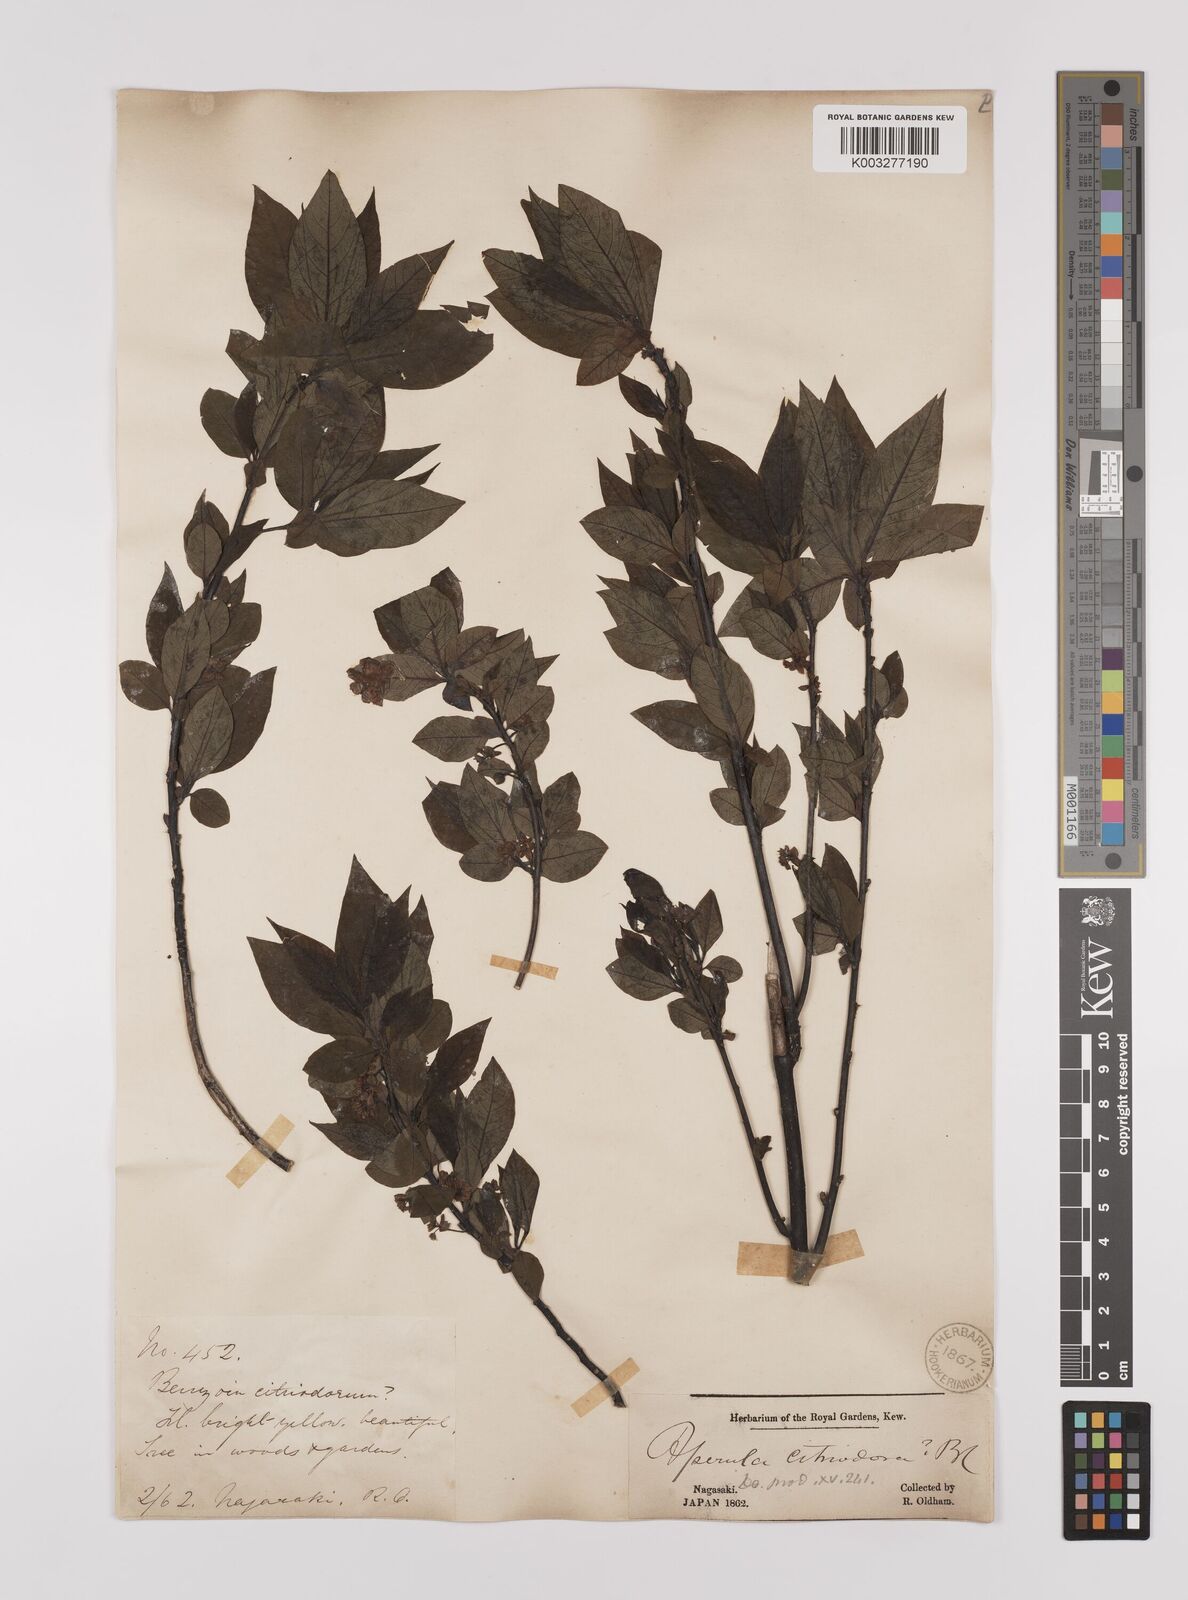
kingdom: Plantae
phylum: Tracheophyta
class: Magnoliopsida
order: Laurales
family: Lauraceae
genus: Lindera
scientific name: Lindera citriodora
